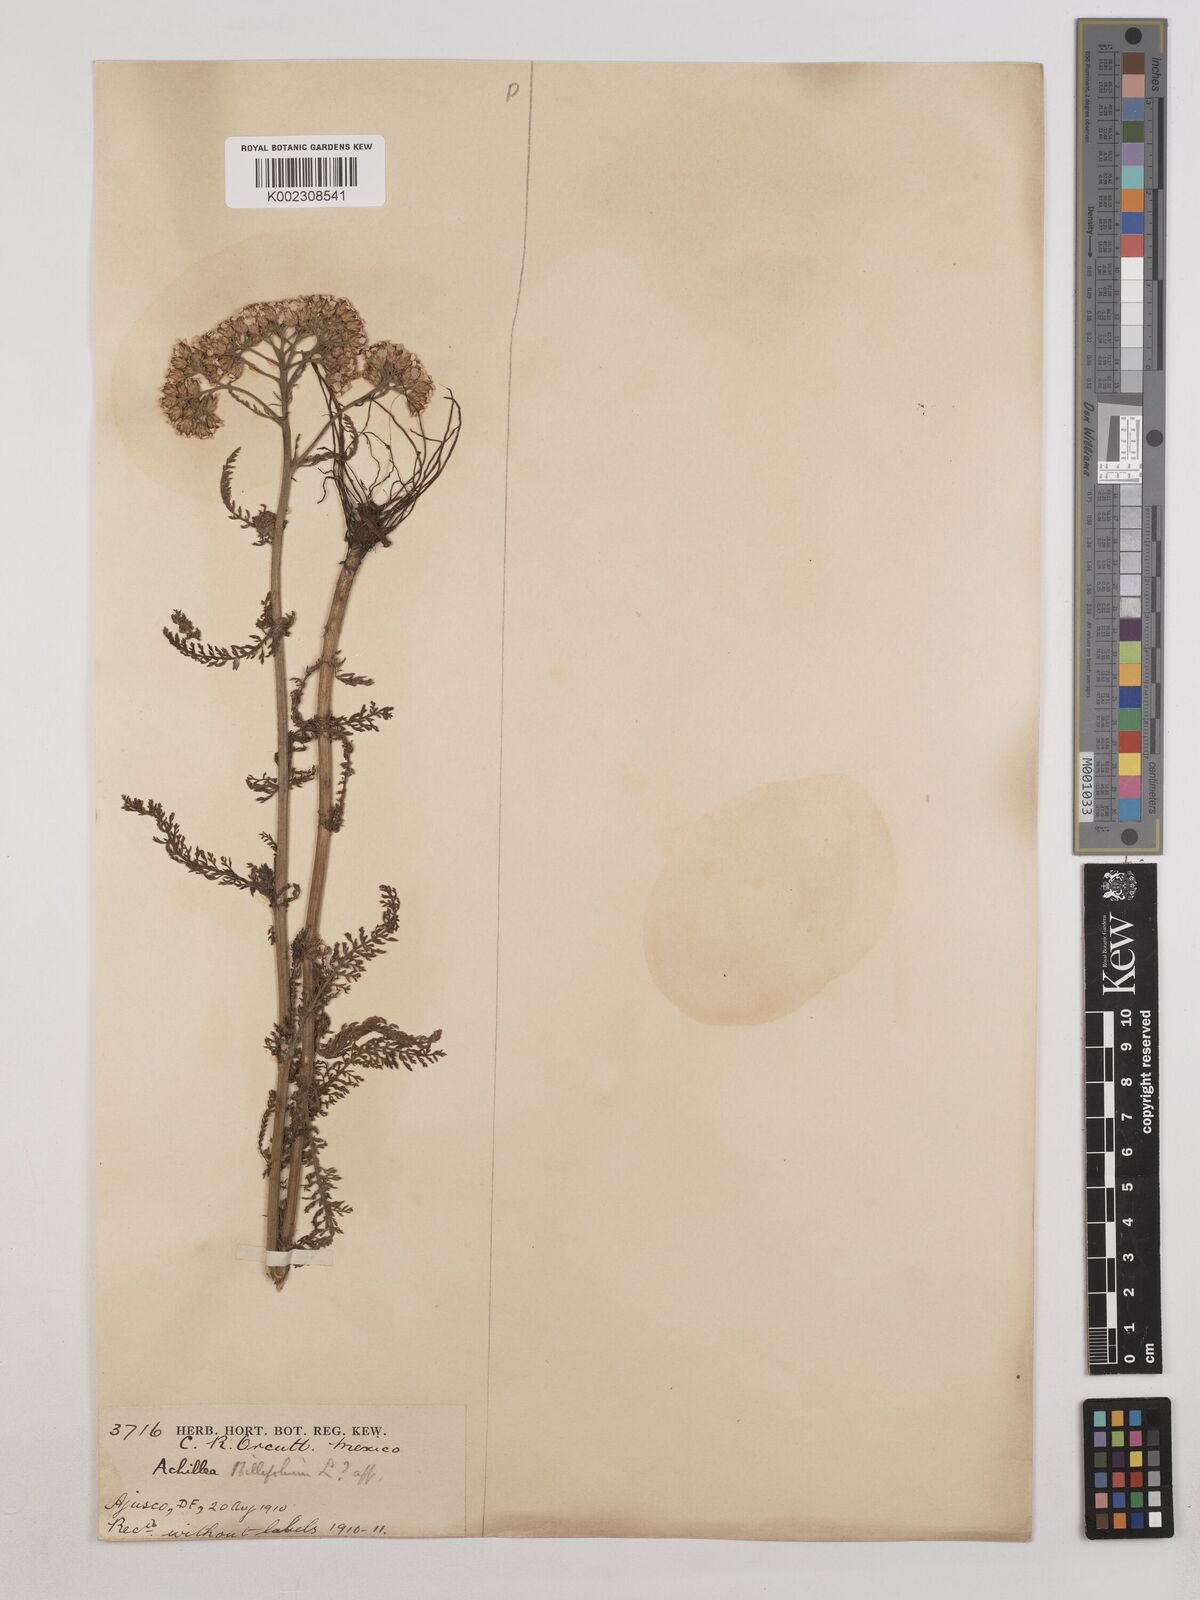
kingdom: Plantae
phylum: Tracheophyta
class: Magnoliopsida
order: Asterales
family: Asteraceae
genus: Achillea
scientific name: Achillea millefolium
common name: Yarrow
